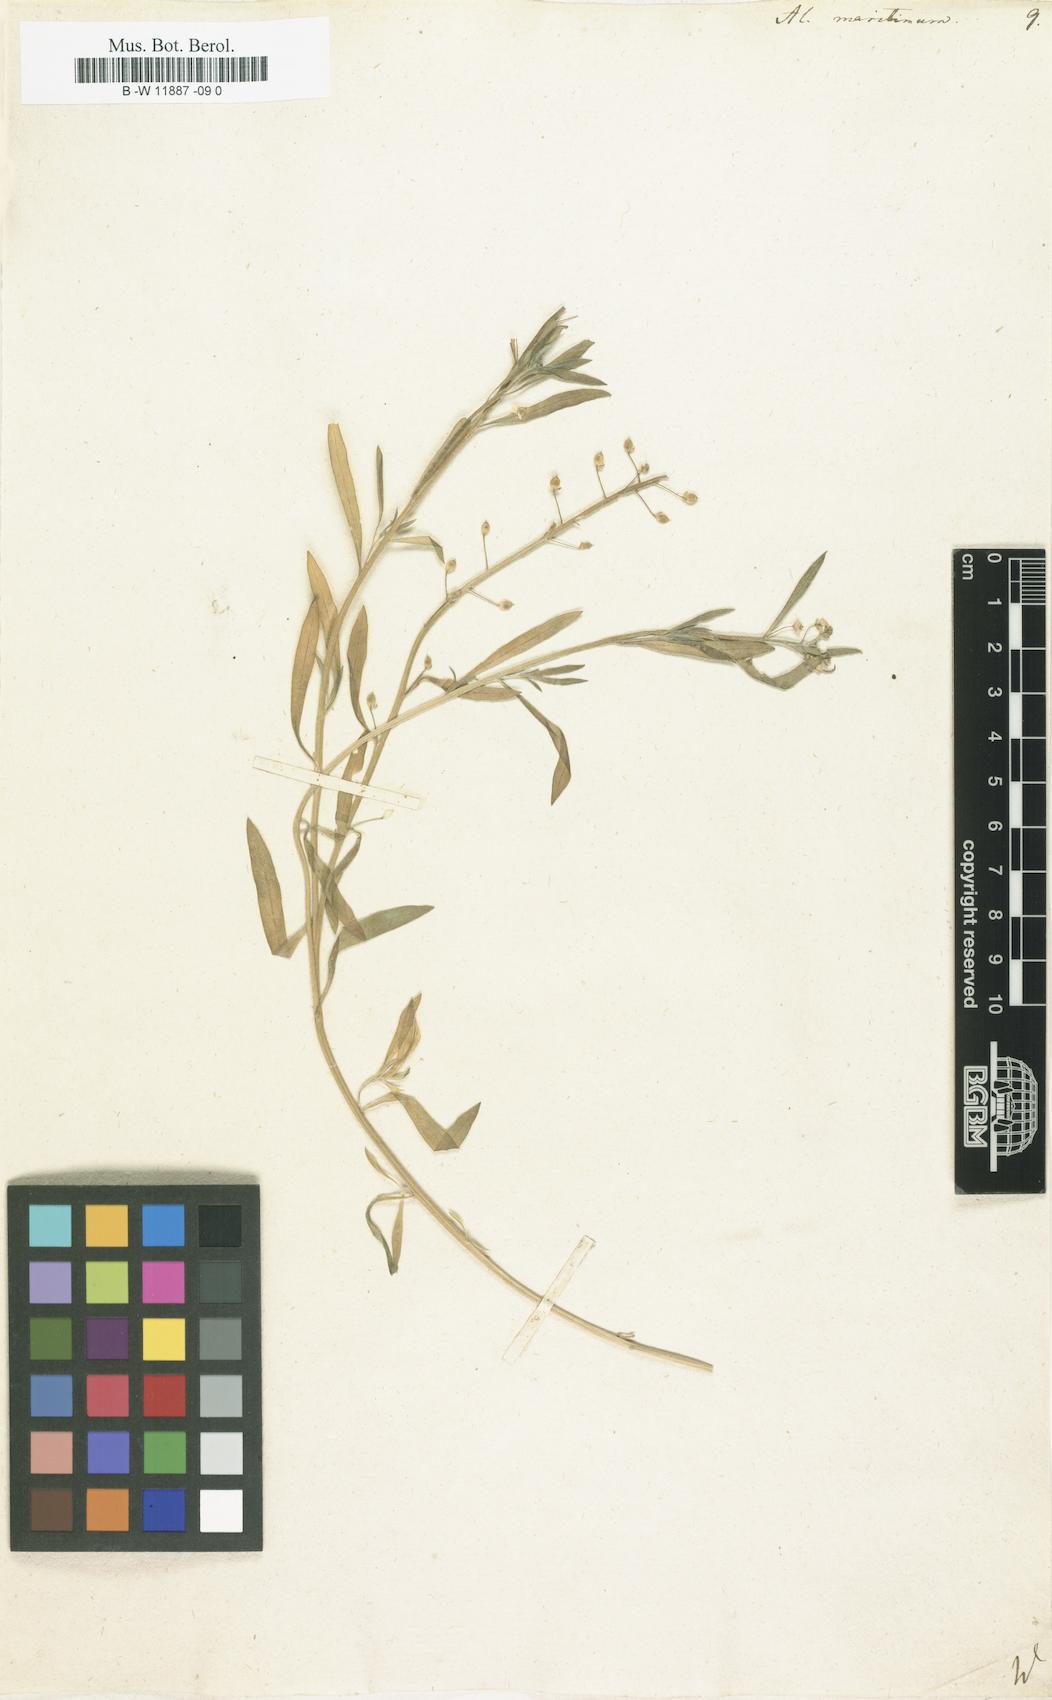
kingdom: Plantae
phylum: Tracheophyta
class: Magnoliopsida
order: Brassicales
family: Brassicaceae
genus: Lobularia
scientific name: Lobularia maritima
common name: Sweet alison
